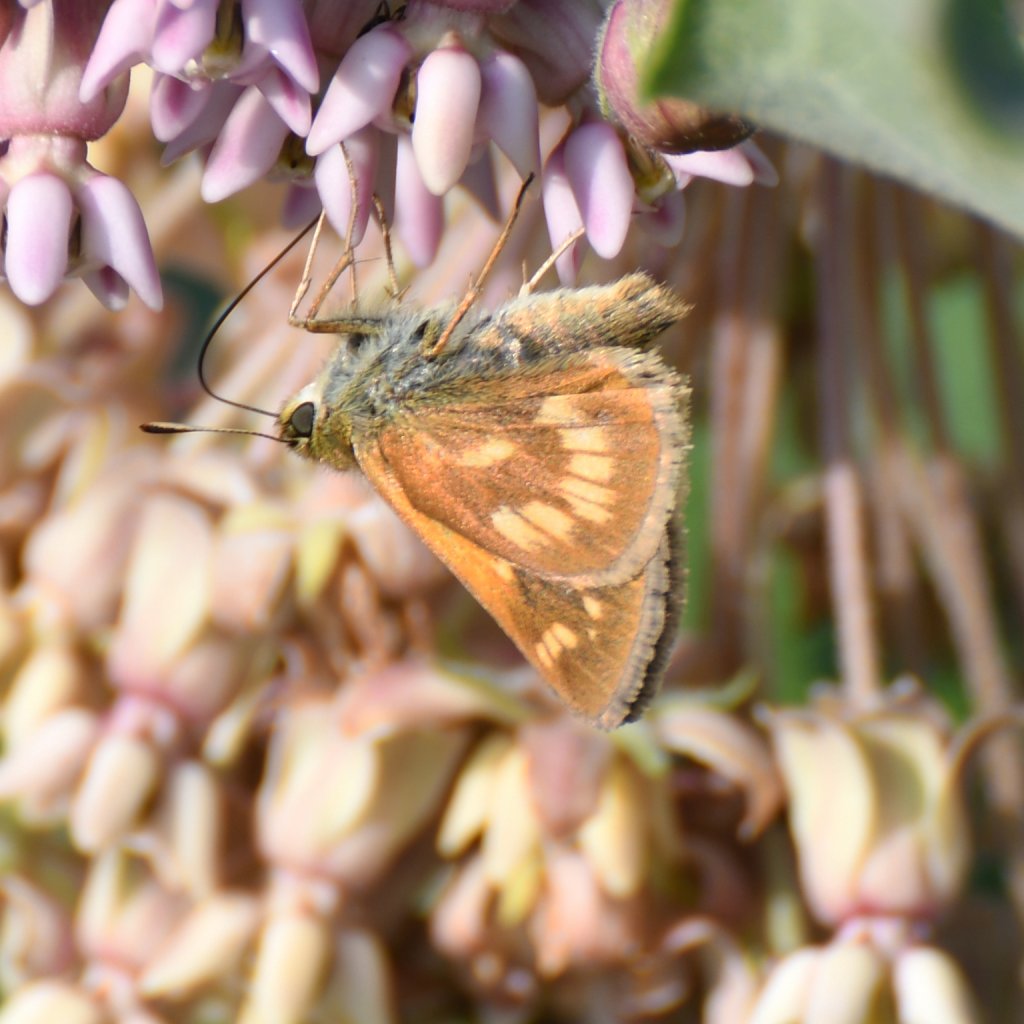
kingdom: Animalia
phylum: Arthropoda
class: Insecta
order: Lepidoptera
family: Hesperiidae
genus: Polites
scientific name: Polites
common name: Long Dash Skipper
